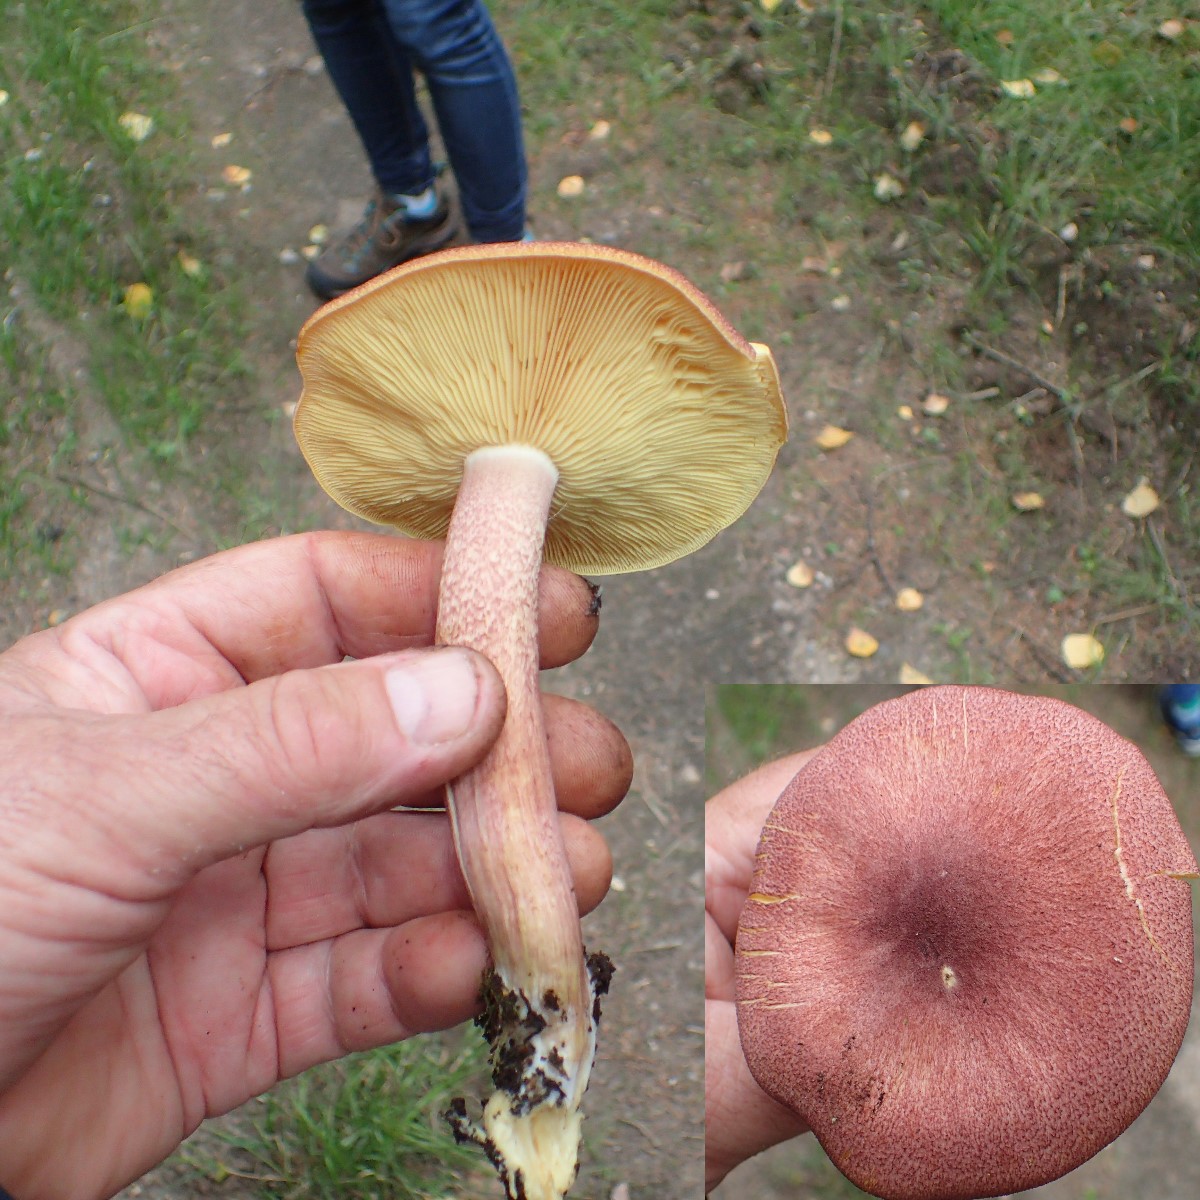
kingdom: Fungi
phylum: Basidiomycota
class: Agaricomycetes
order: Agaricales
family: Tricholomataceae
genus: Tricholomopsis
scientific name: Tricholomopsis rutilans
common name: purpur-væbnerhat
